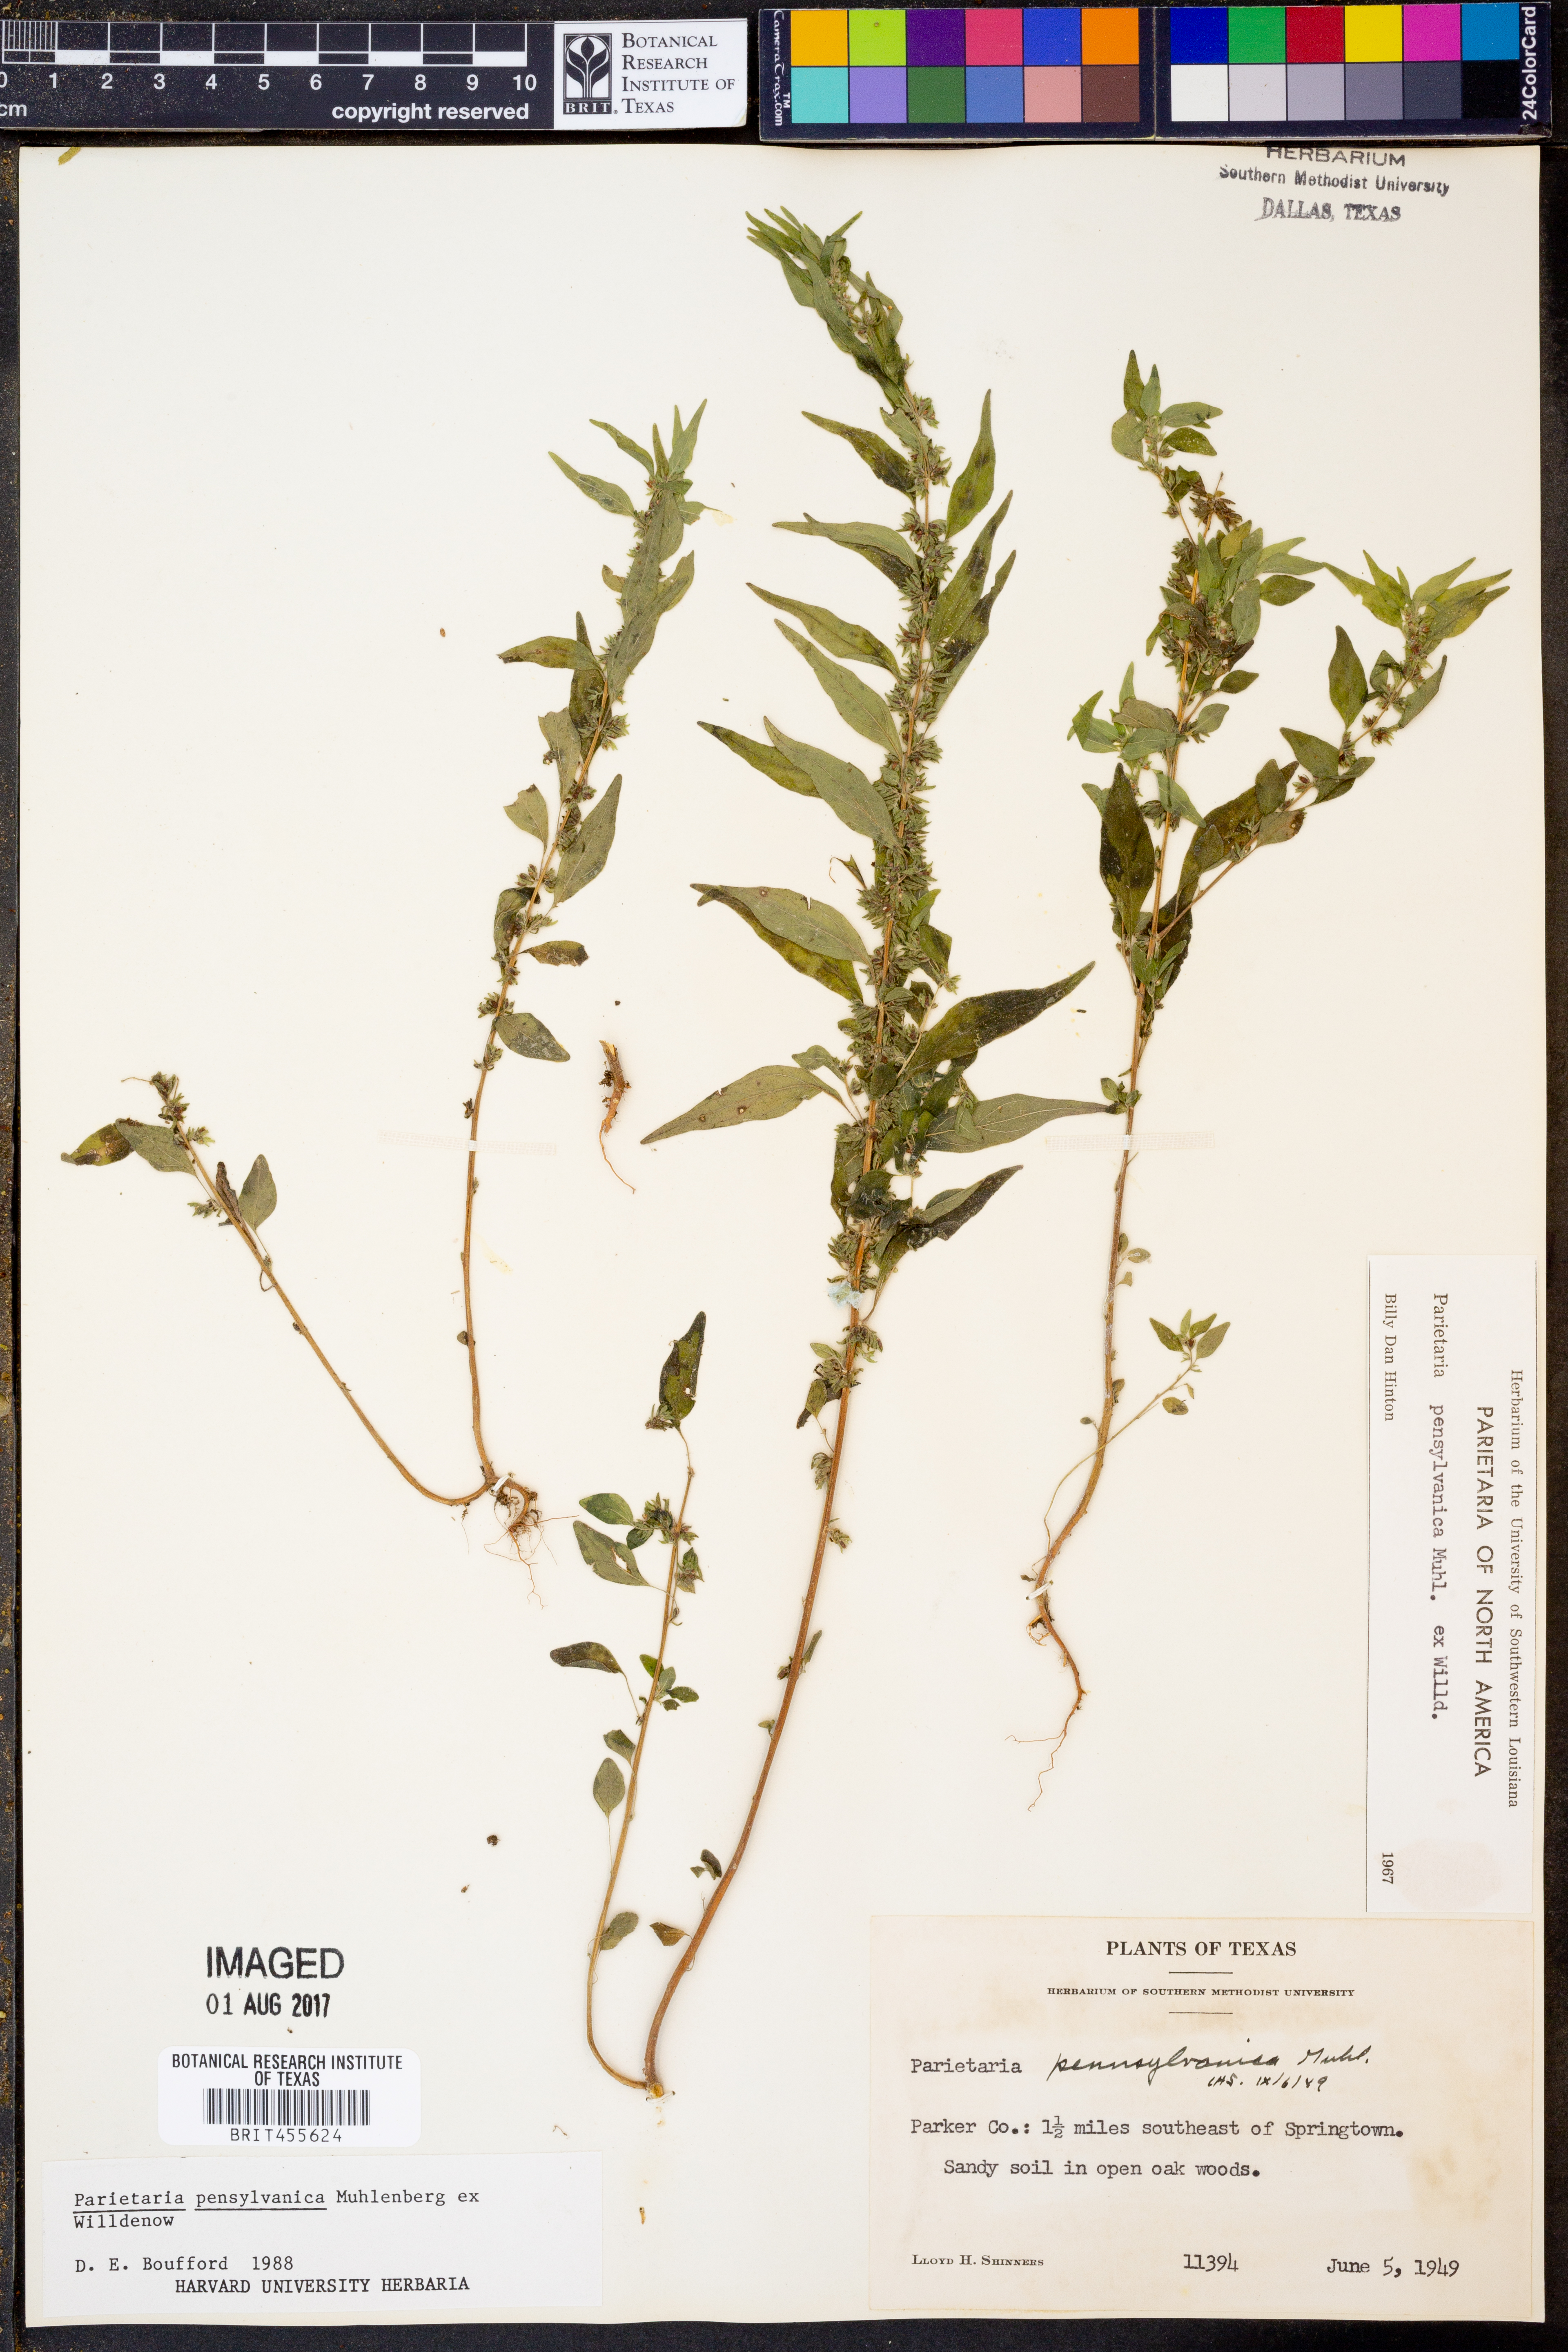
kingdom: Plantae
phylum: Tracheophyta
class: Magnoliopsida
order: Rosales
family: Urticaceae
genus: Parietaria
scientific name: Parietaria pensylvanica
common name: Pennsylvania pellitory
